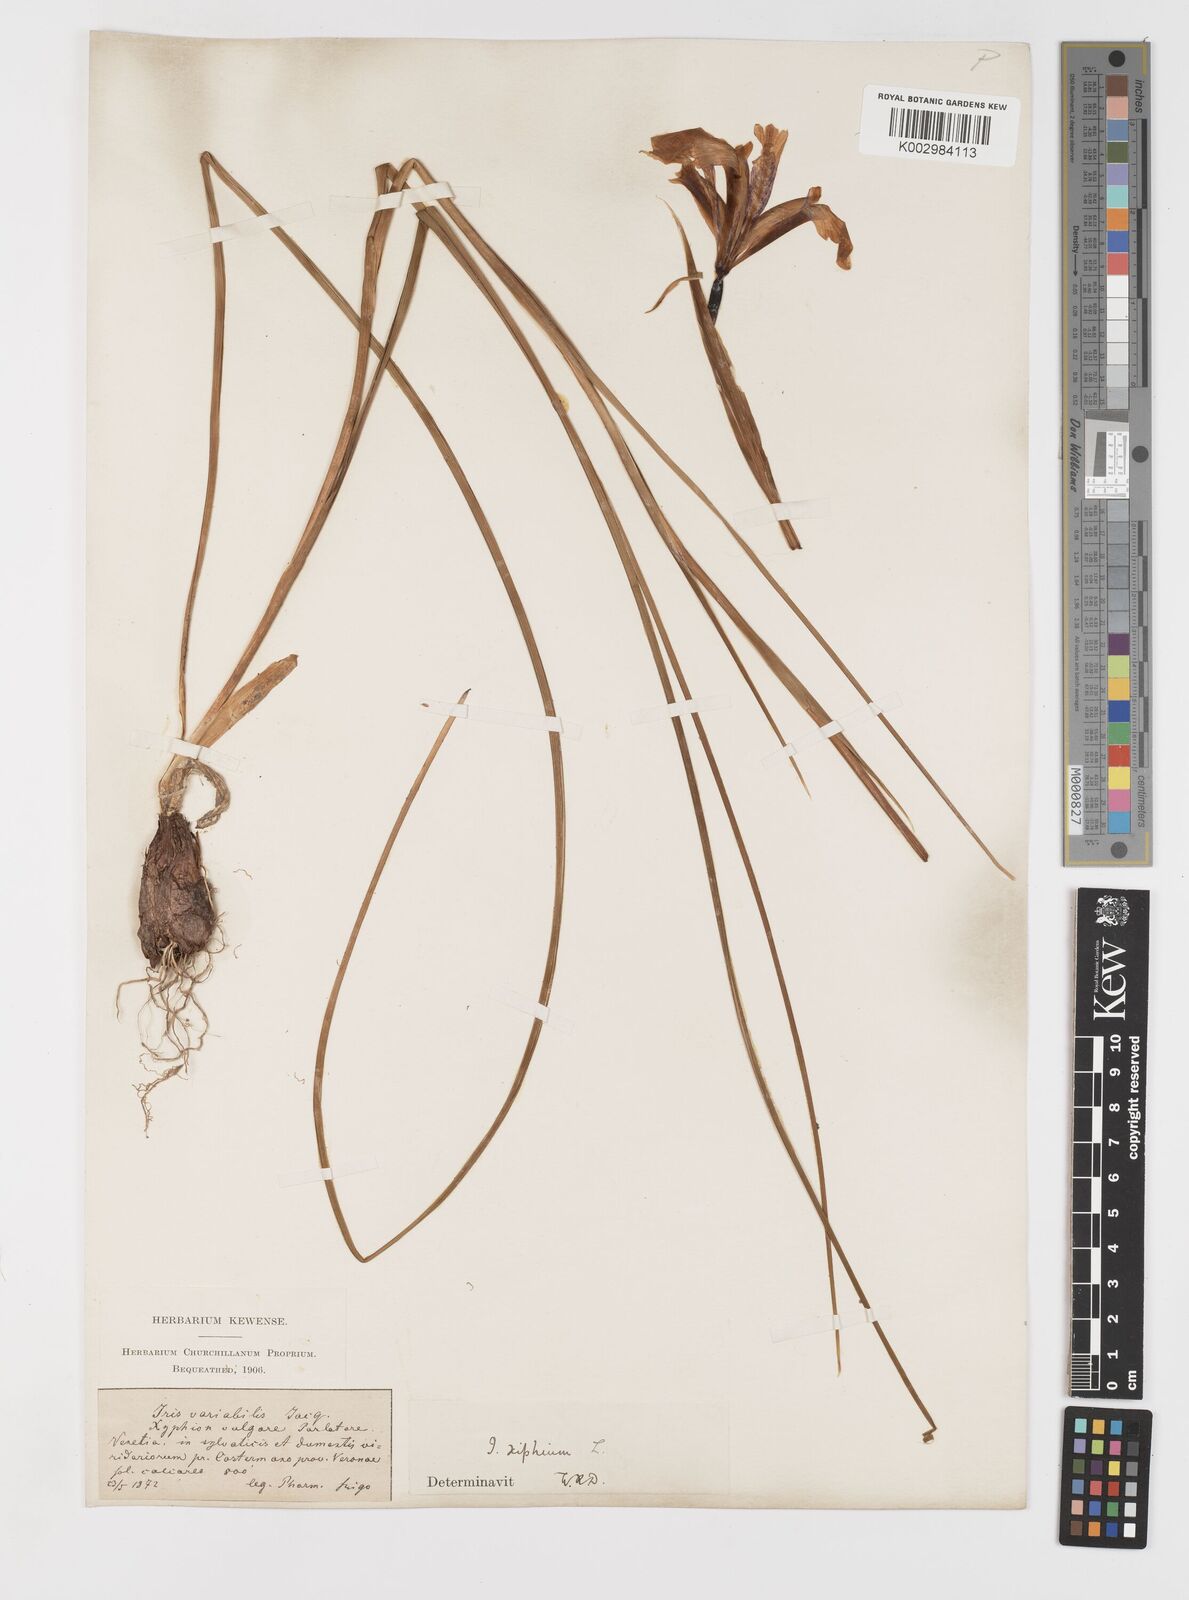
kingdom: Plantae
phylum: Tracheophyta
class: Liliopsida
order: Asparagales
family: Iridaceae
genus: Iris
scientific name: Iris xiphium
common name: Spanish iris
